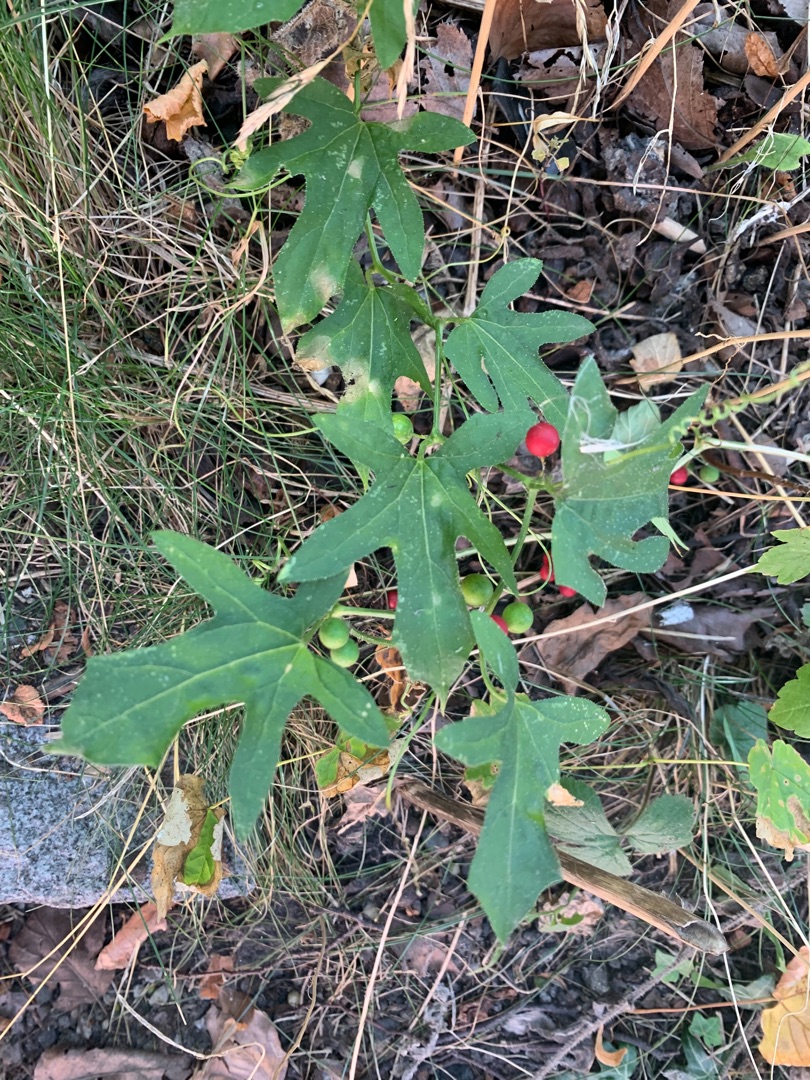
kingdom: Plantae
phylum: Tracheophyta
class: Magnoliopsida
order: Cucurbitales
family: Cucurbitaceae
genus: Bryonia
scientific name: Bryonia dioica
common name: Tvebo galdebær
